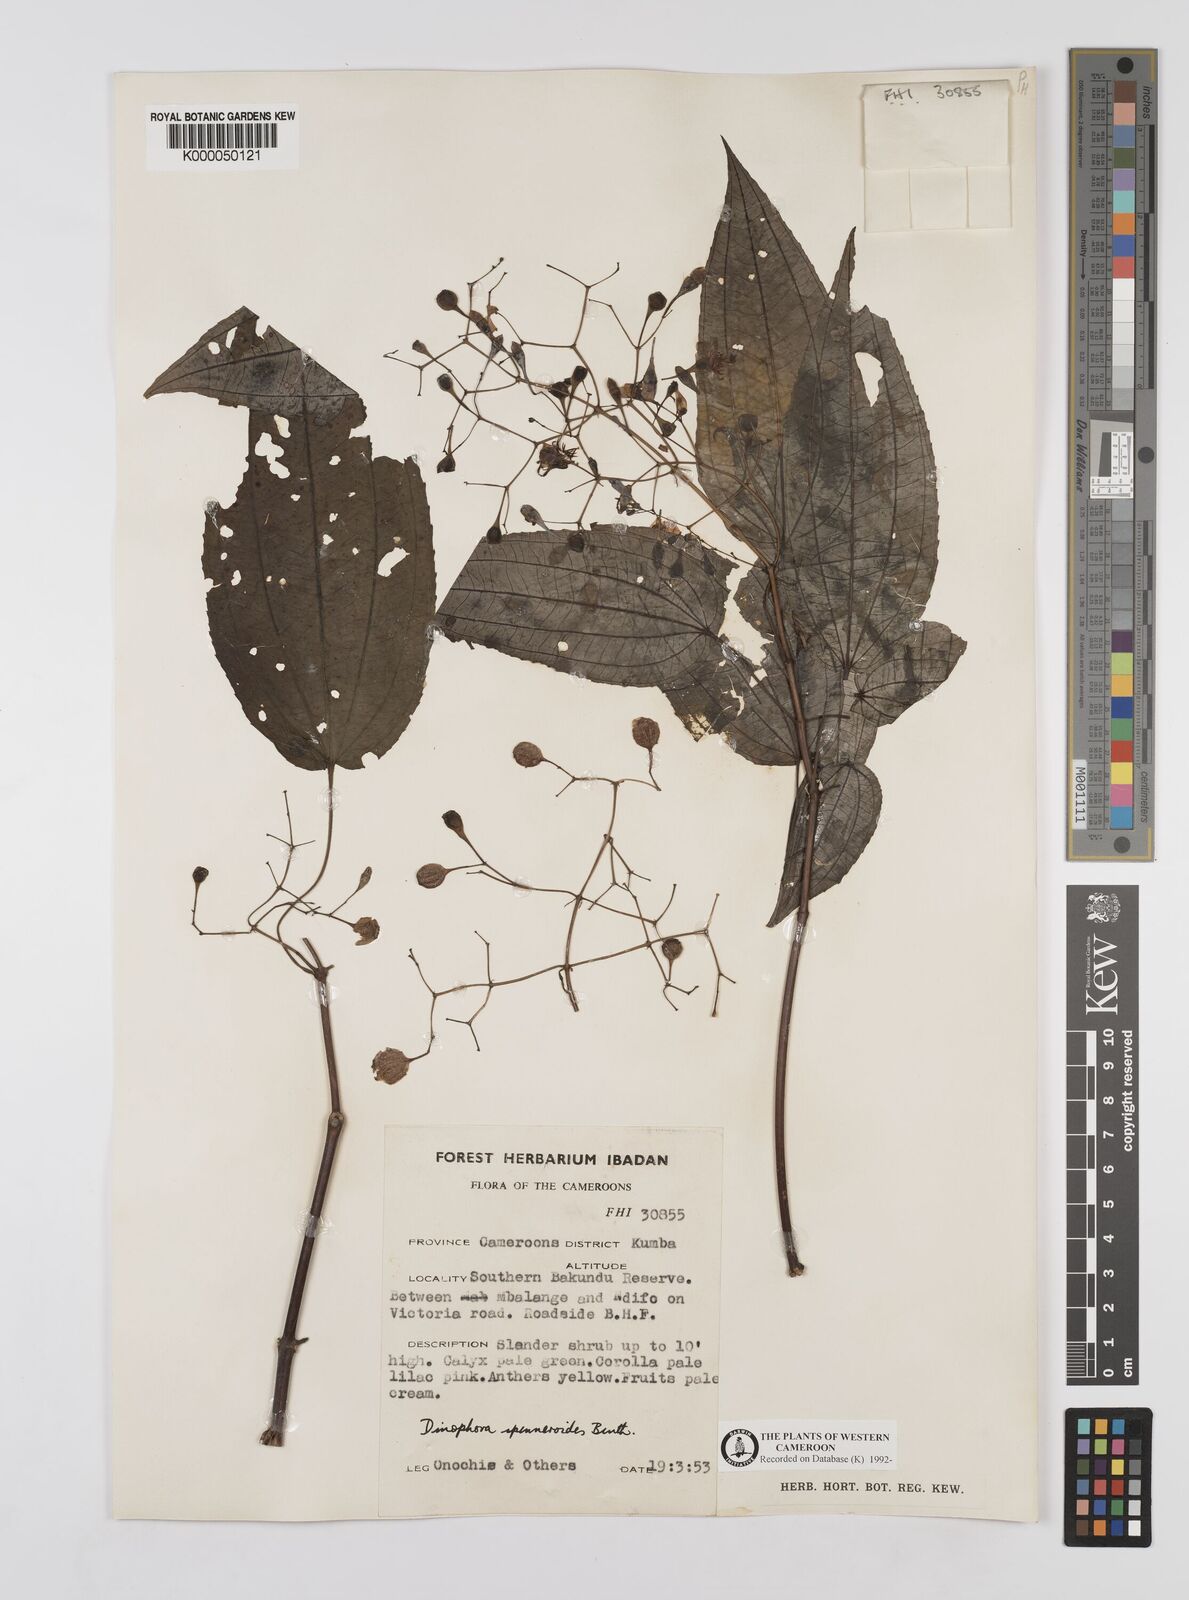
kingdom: Plantae
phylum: Tracheophyta
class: Magnoliopsida
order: Myrtales
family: Melastomataceae
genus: Dinophora
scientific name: Dinophora spenneroides
